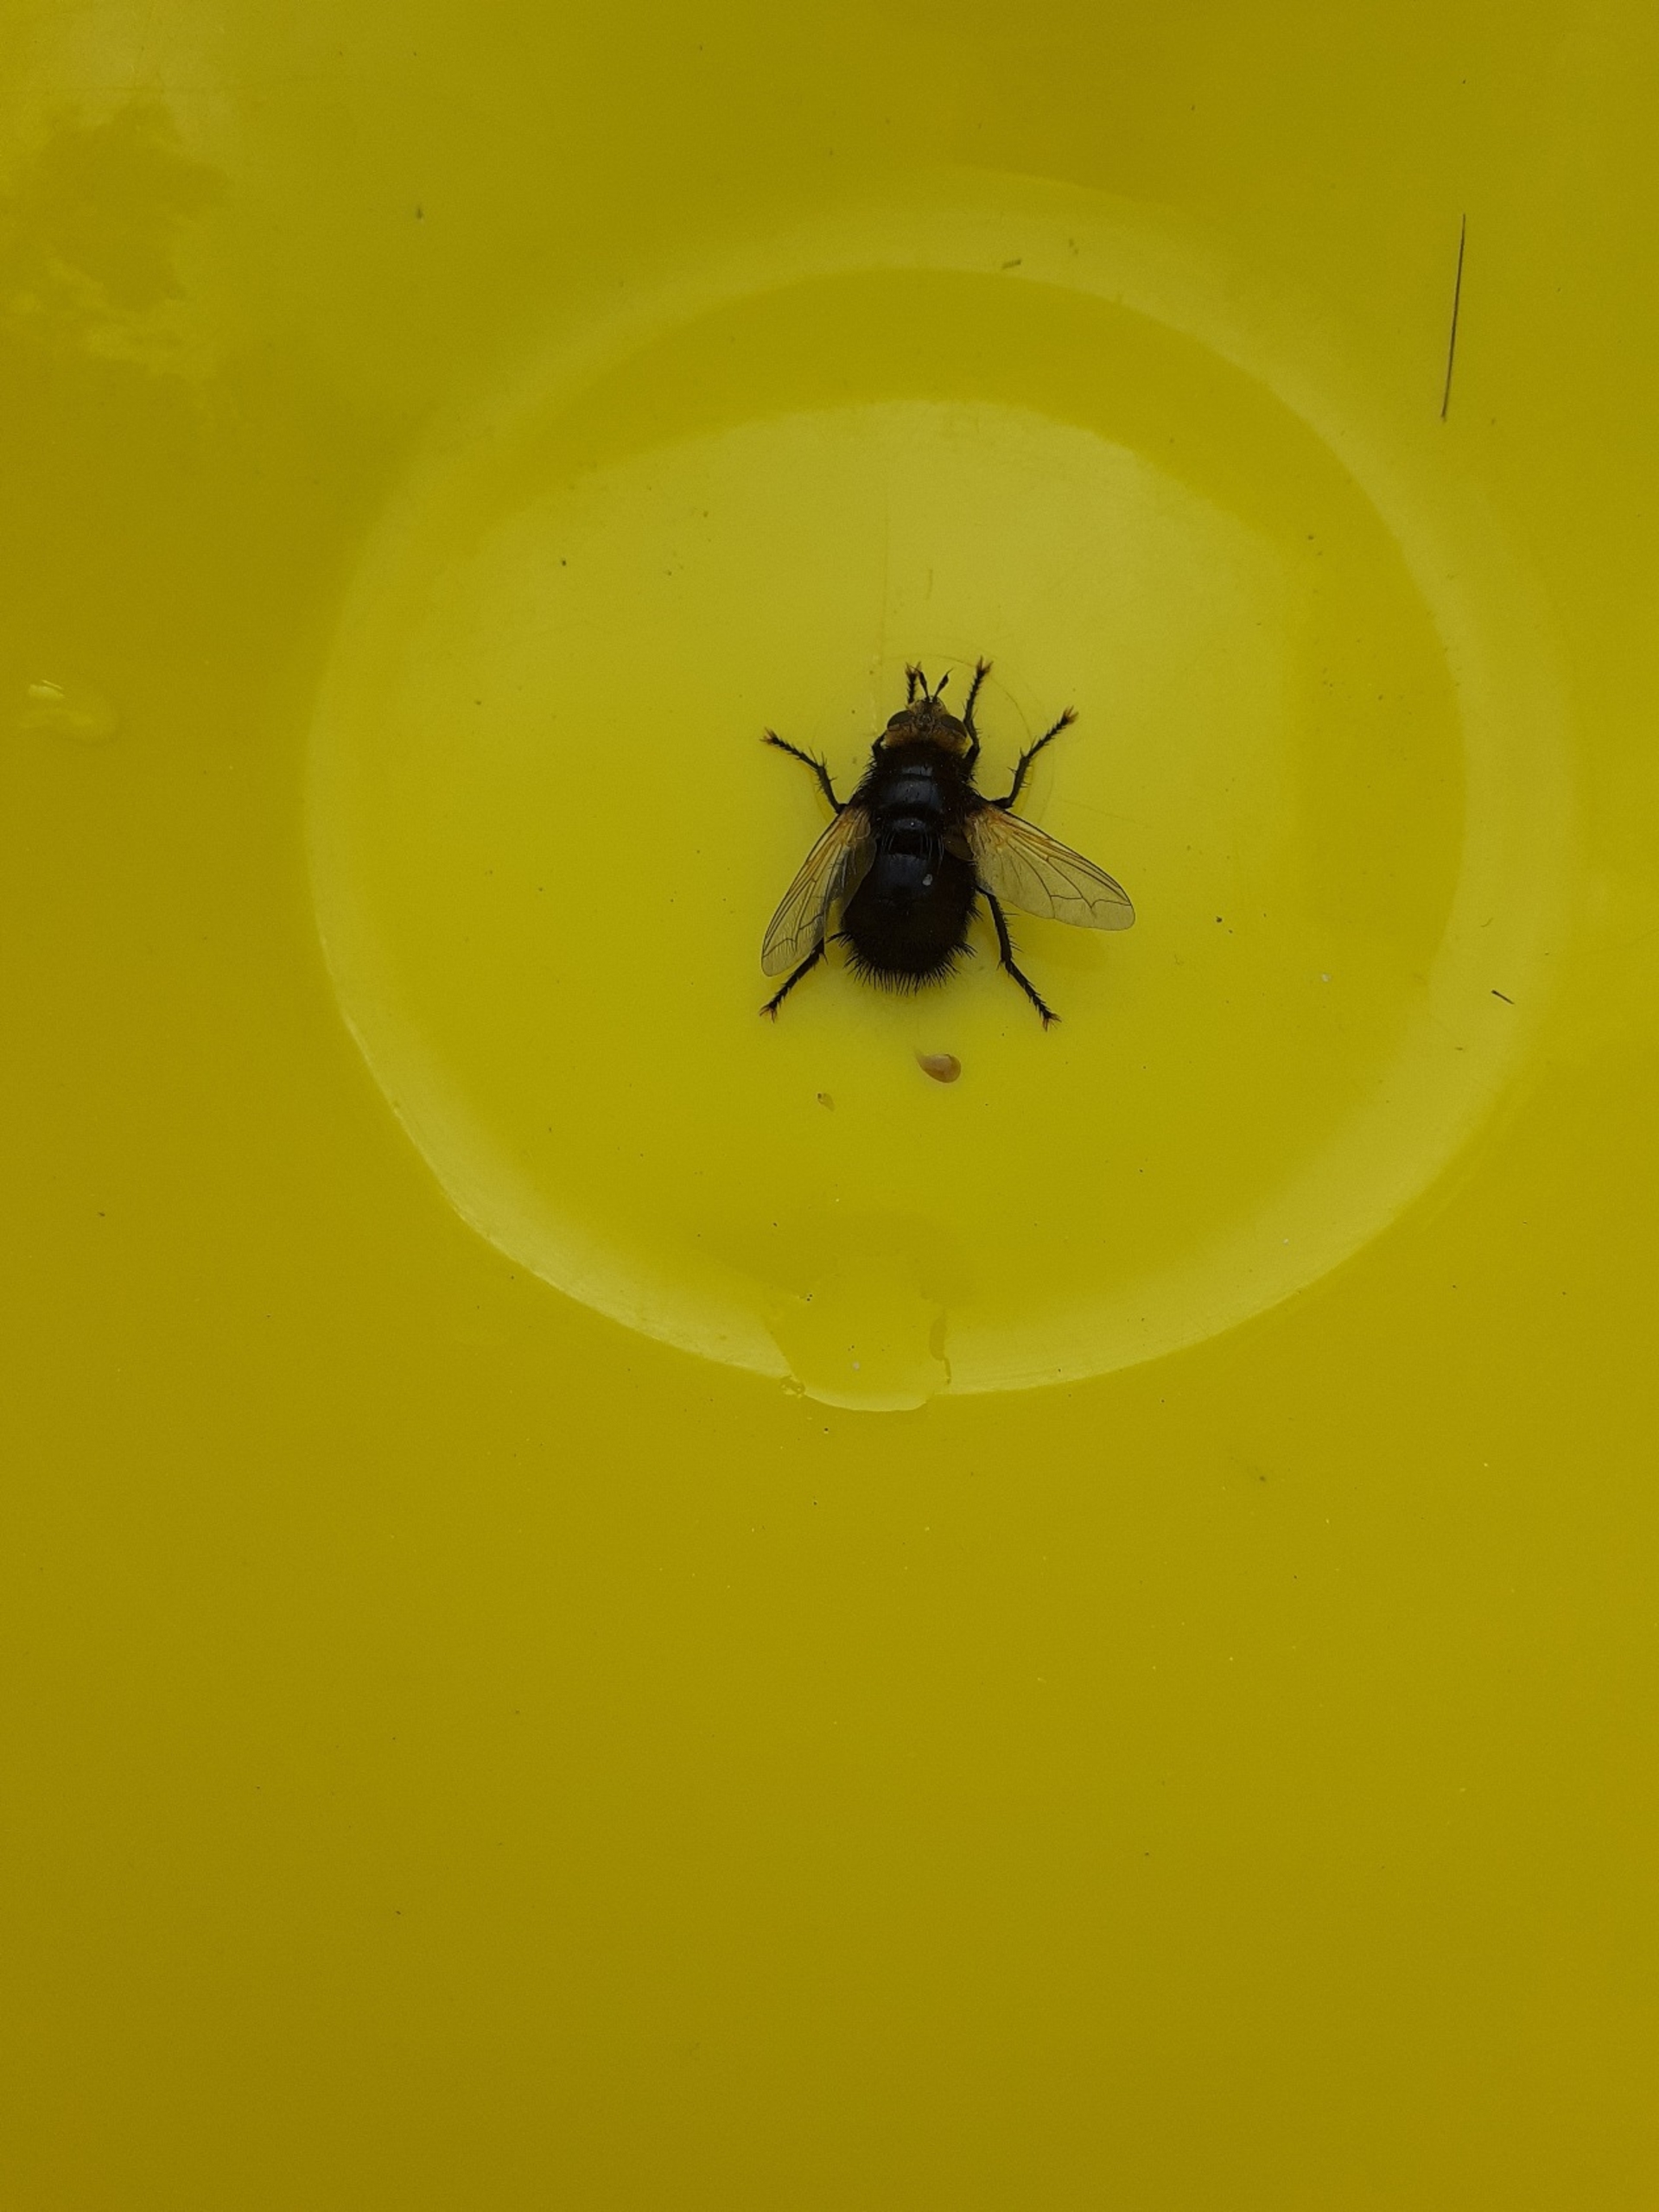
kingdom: Animalia
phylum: Arthropoda
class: Insecta
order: Diptera
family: Tachinidae
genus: Tachina
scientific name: Tachina grossa
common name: Kæmpefluen Harald
